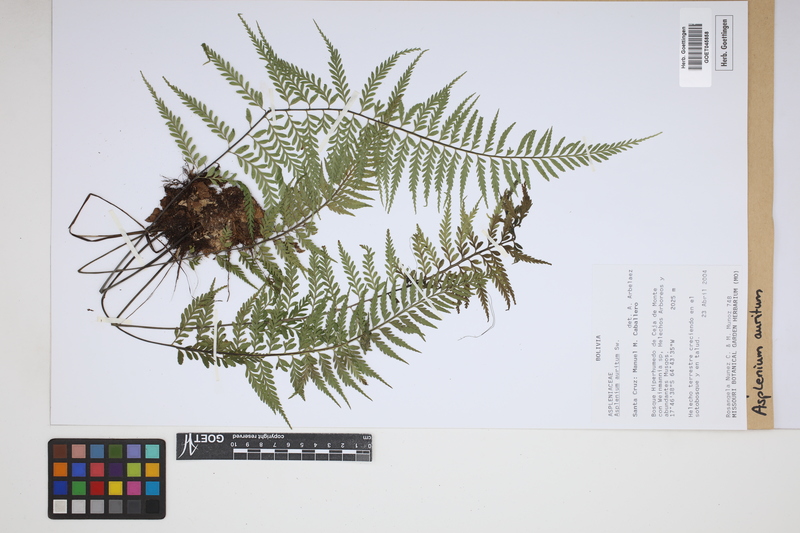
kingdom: Plantae
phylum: Tracheophyta
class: Polypodiopsida
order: Polypodiales
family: Aspleniaceae
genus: Asplenium
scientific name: Asplenium auritum
